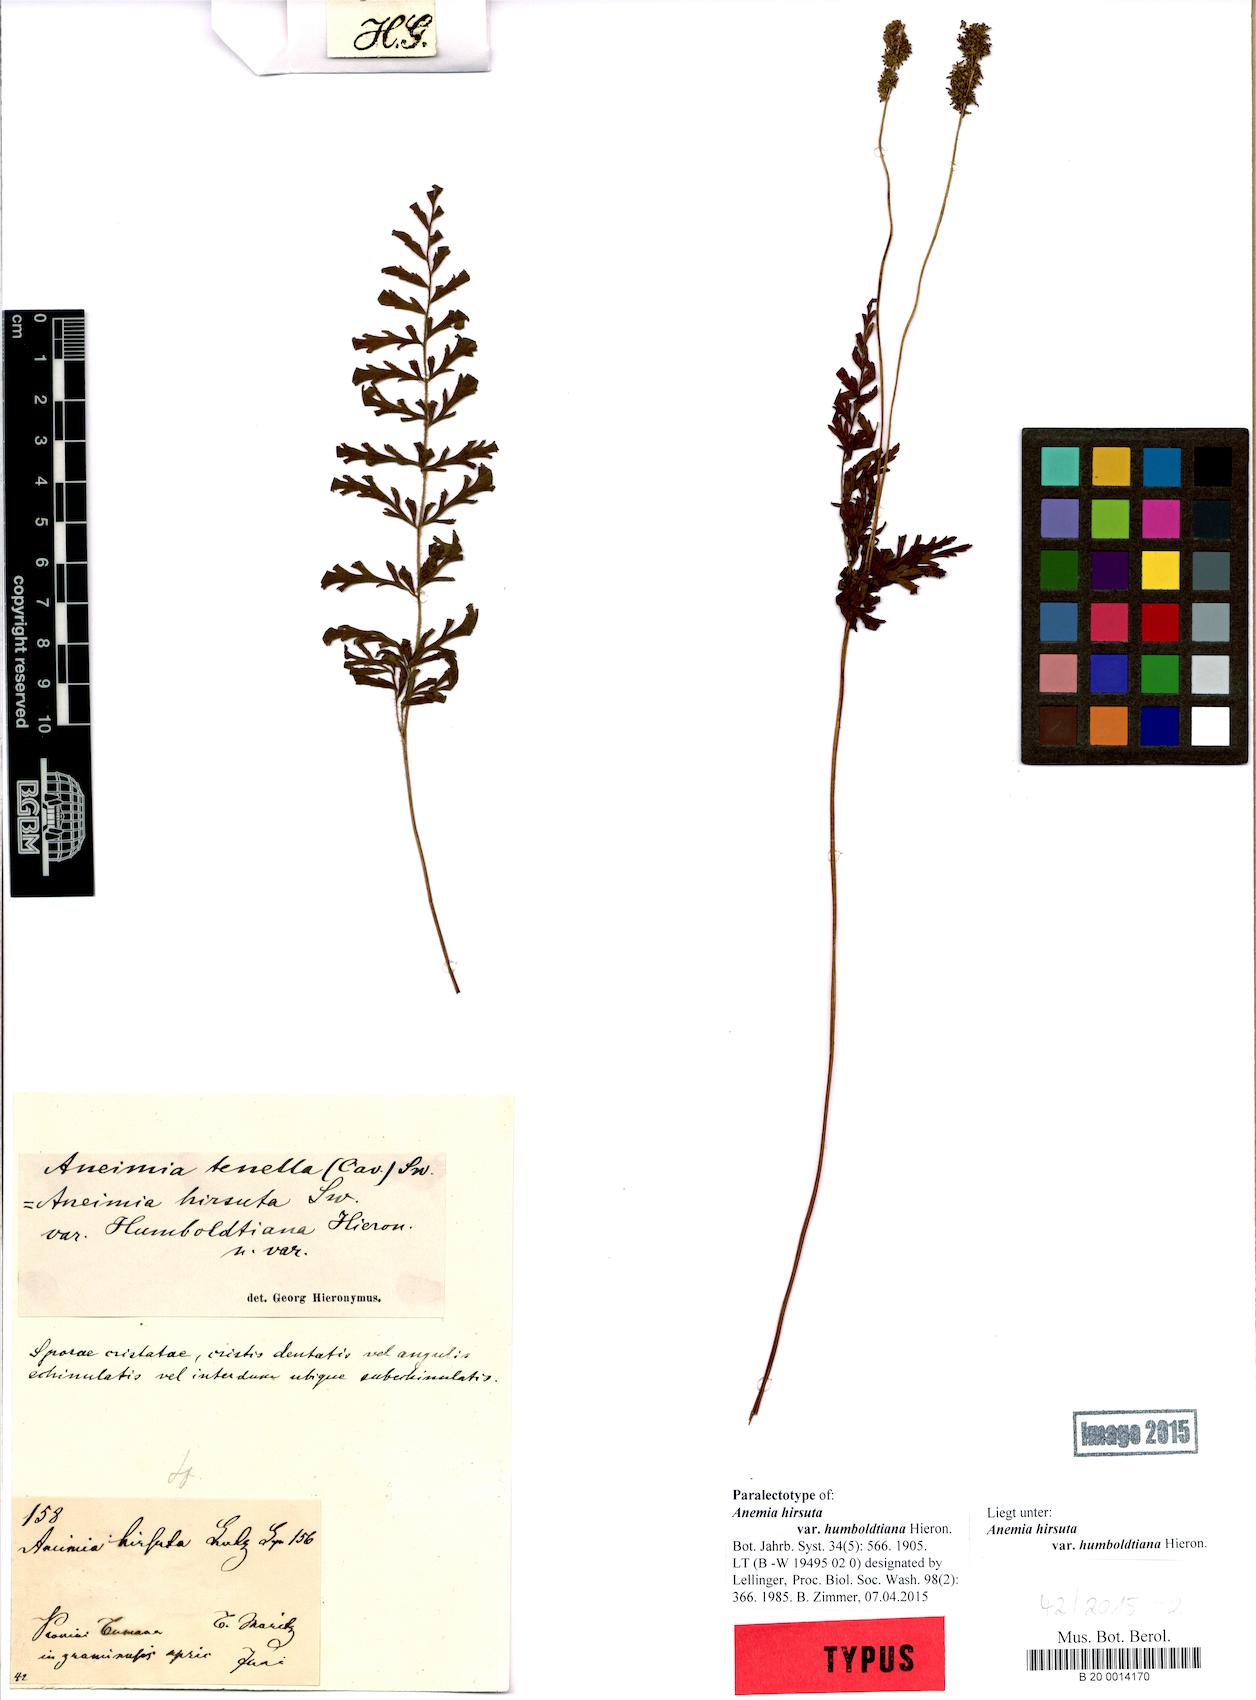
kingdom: Plantae
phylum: Tracheophyta
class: Polypodiopsida
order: Schizaeales
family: Anemiaceae
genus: Anemia
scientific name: Anemia hirsuta
